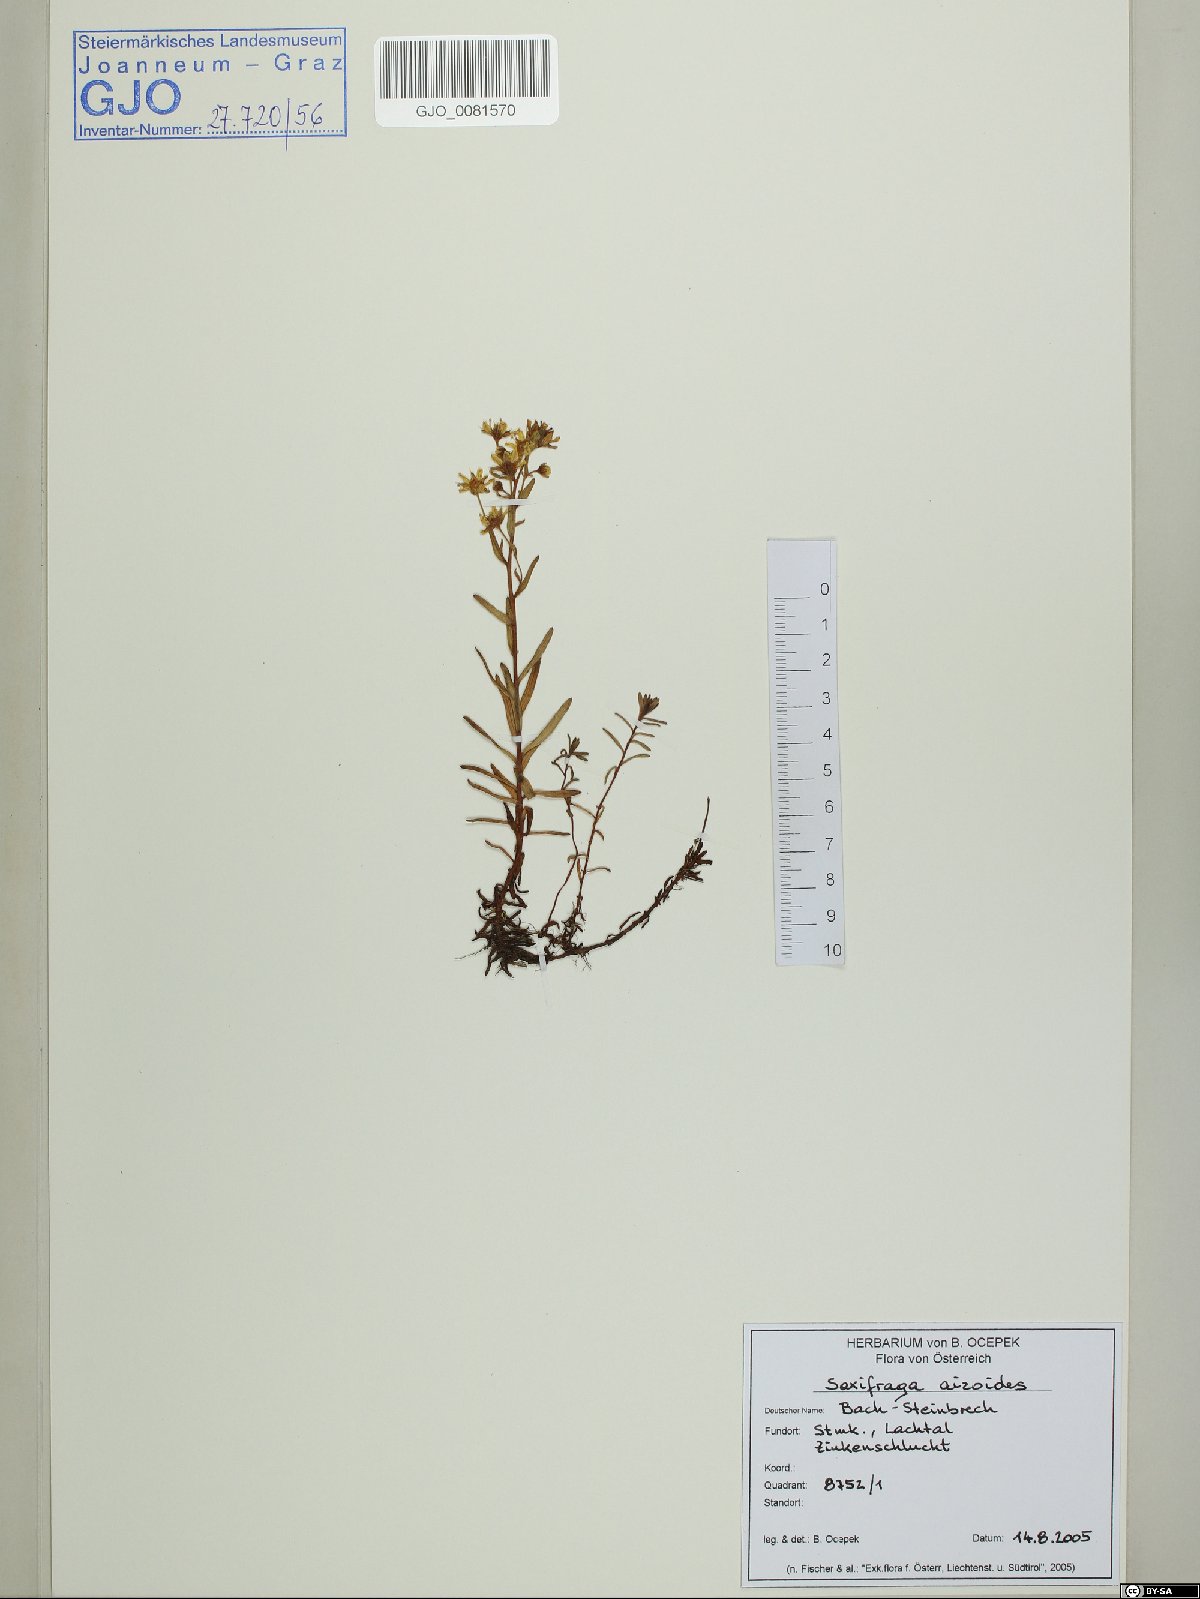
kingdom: Plantae
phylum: Tracheophyta
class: Magnoliopsida
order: Saxifragales
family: Saxifragaceae
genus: Saxifraga
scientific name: Saxifraga aizoides
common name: Yellow mountain saxifrage
